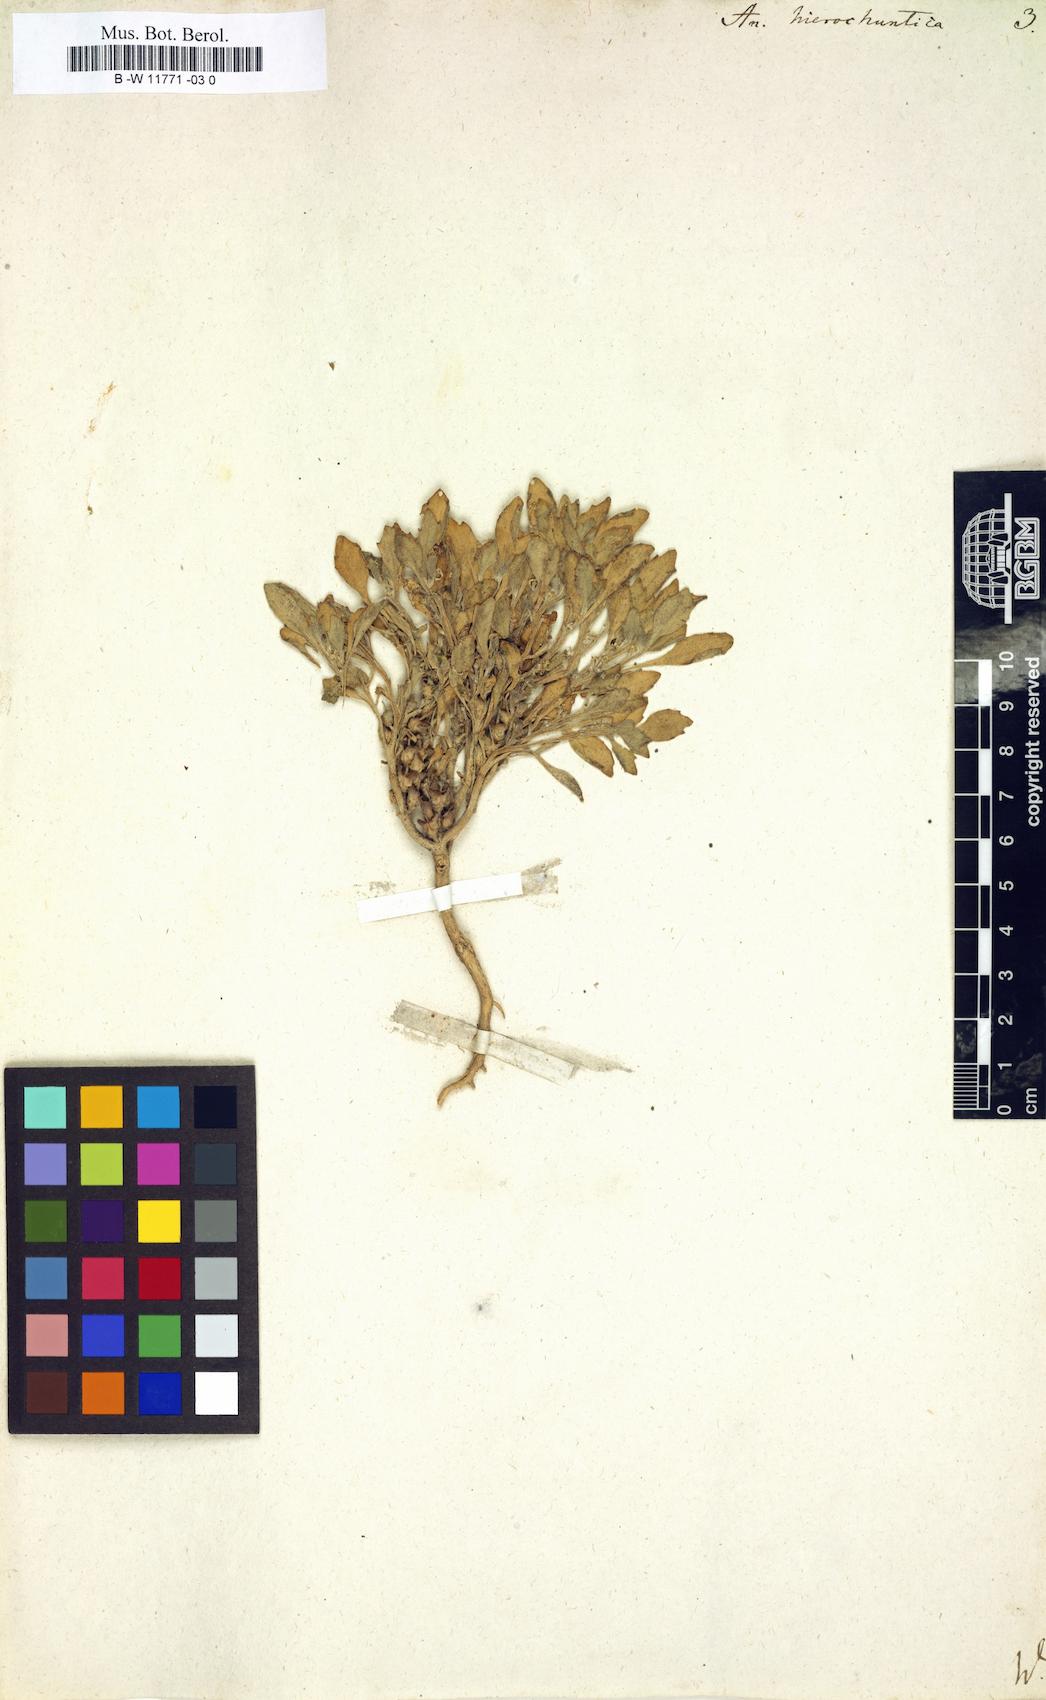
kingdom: Plantae
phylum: Tracheophyta
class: Magnoliopsida
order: Brassicales
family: Brassicaceae
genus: Anastatica
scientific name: Anastatica hierochuntica
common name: Rose-of-jericho
